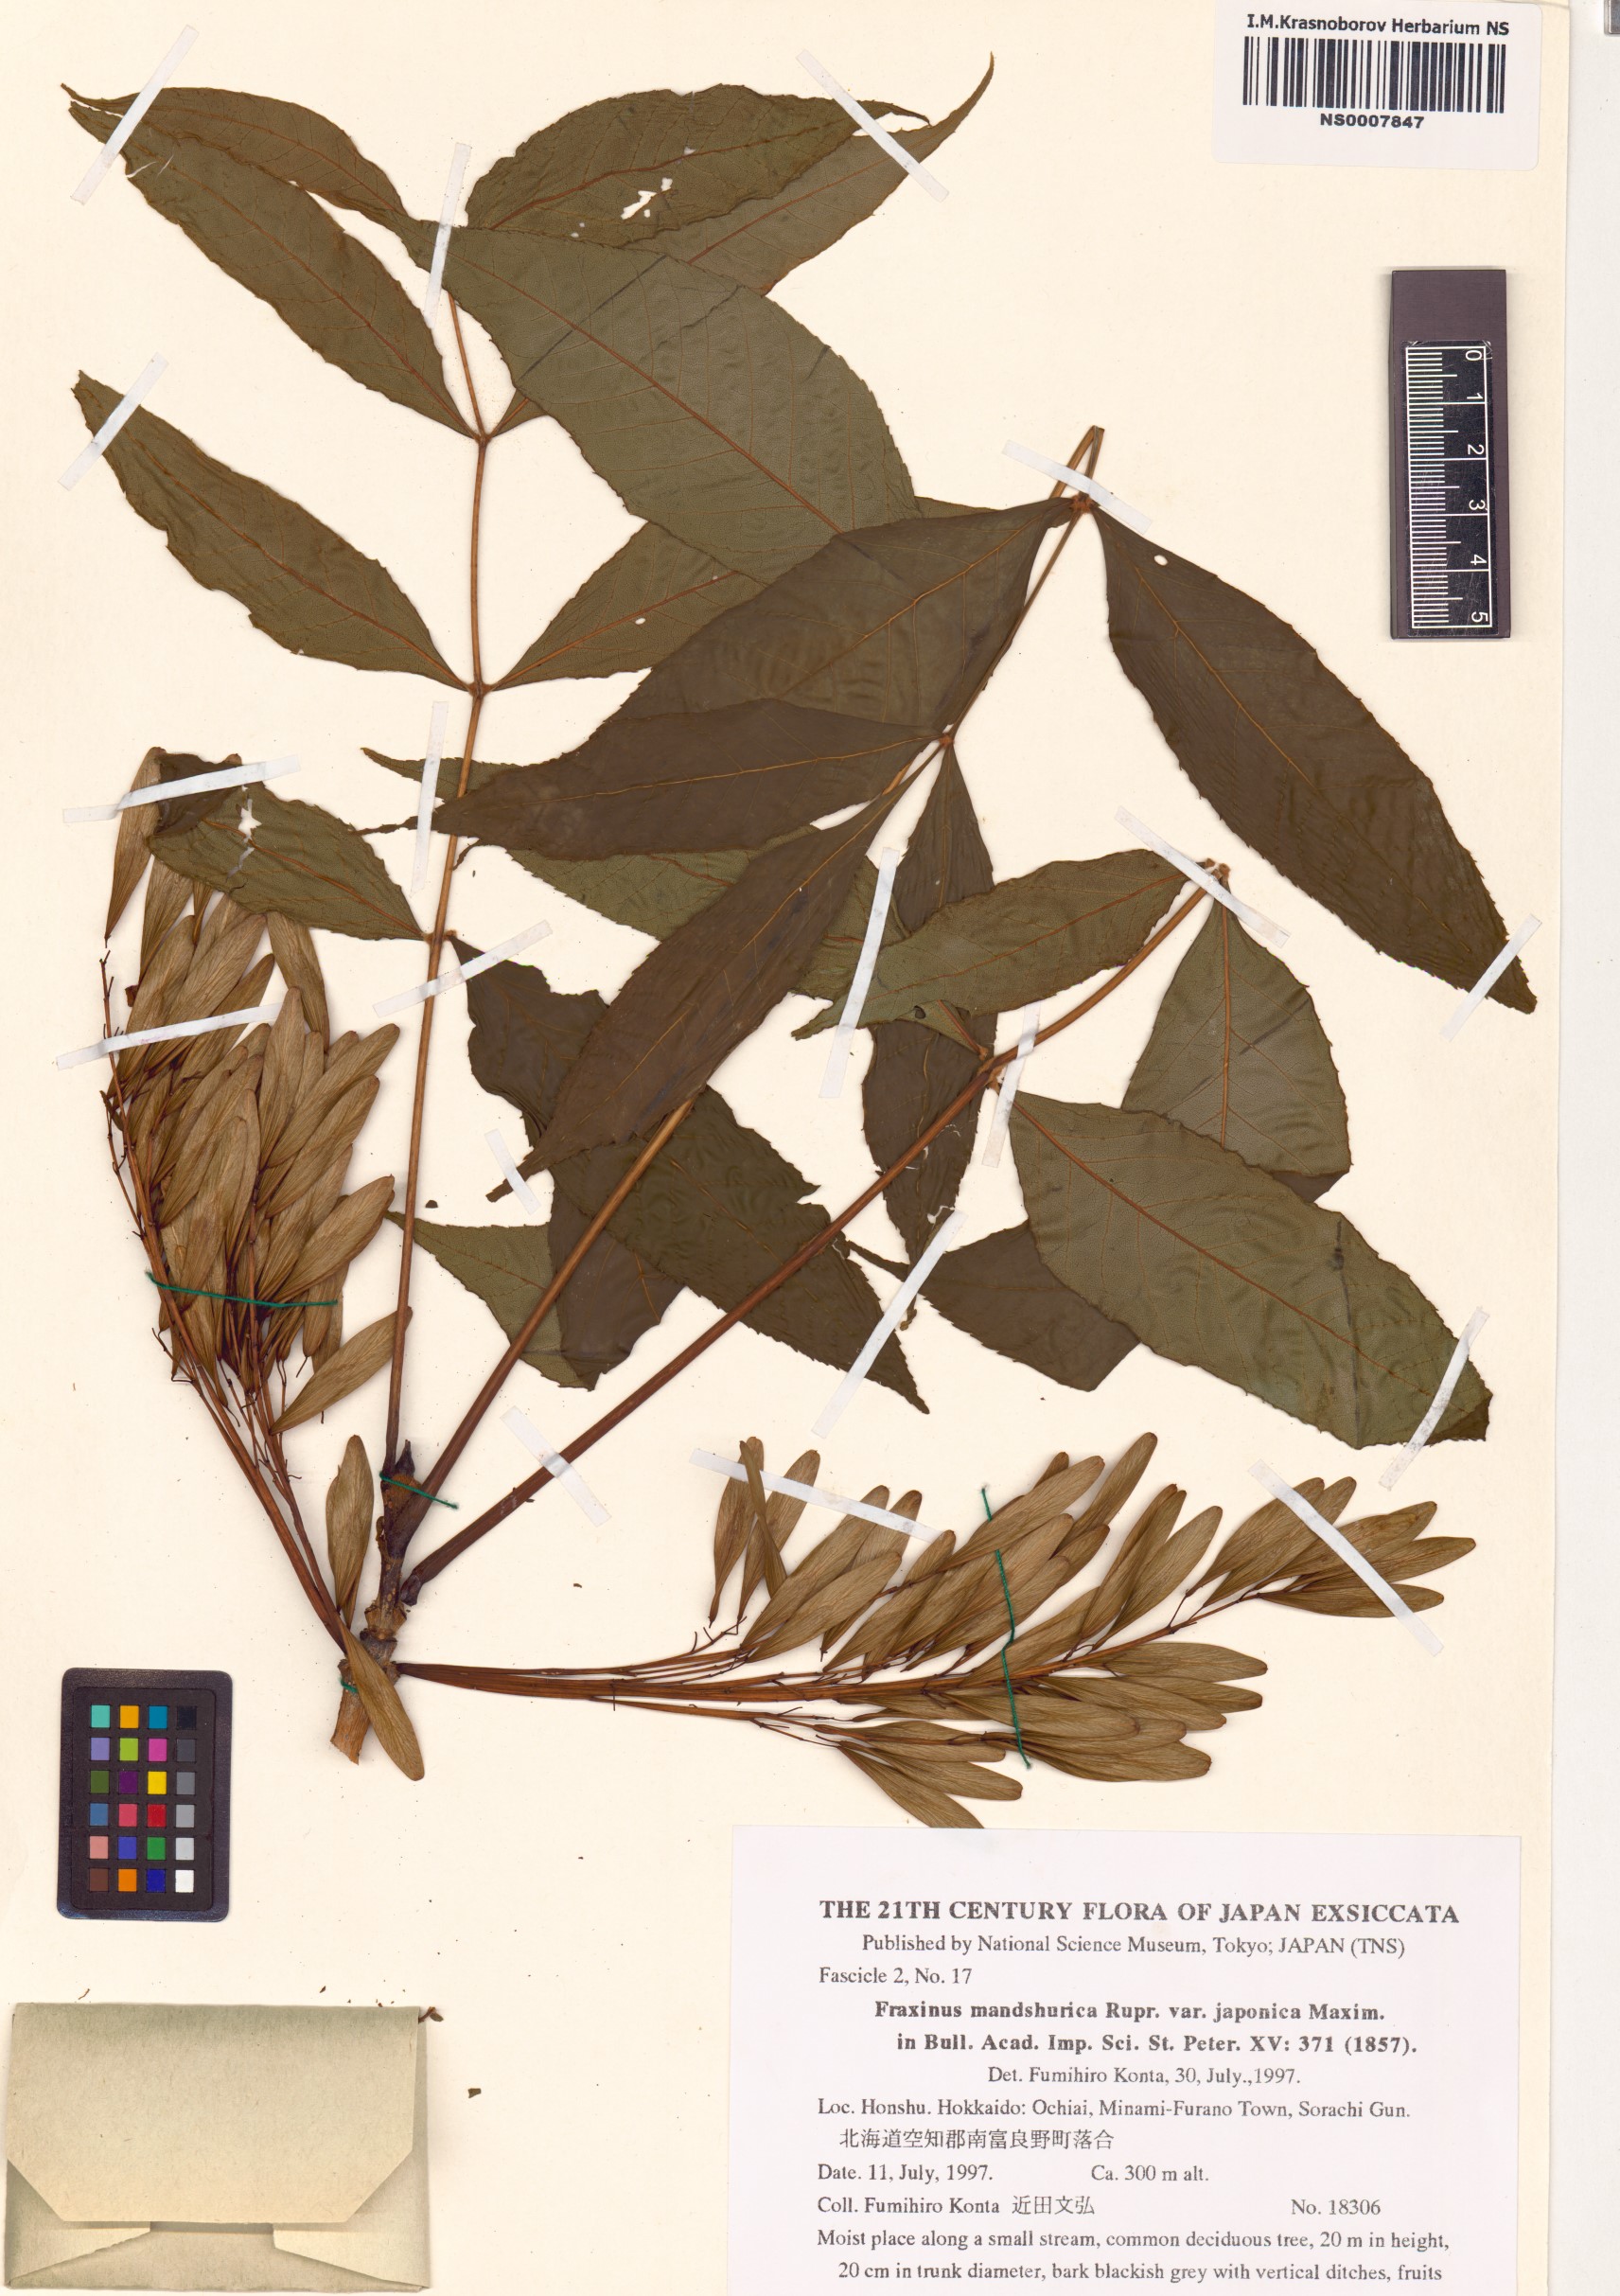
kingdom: Plantae
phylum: Tracheophyta
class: Magnoliopsida
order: Lamiales
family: Oleaceae
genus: Fraxinus
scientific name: Fraxinus mandshurica
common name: Manchurian ash
